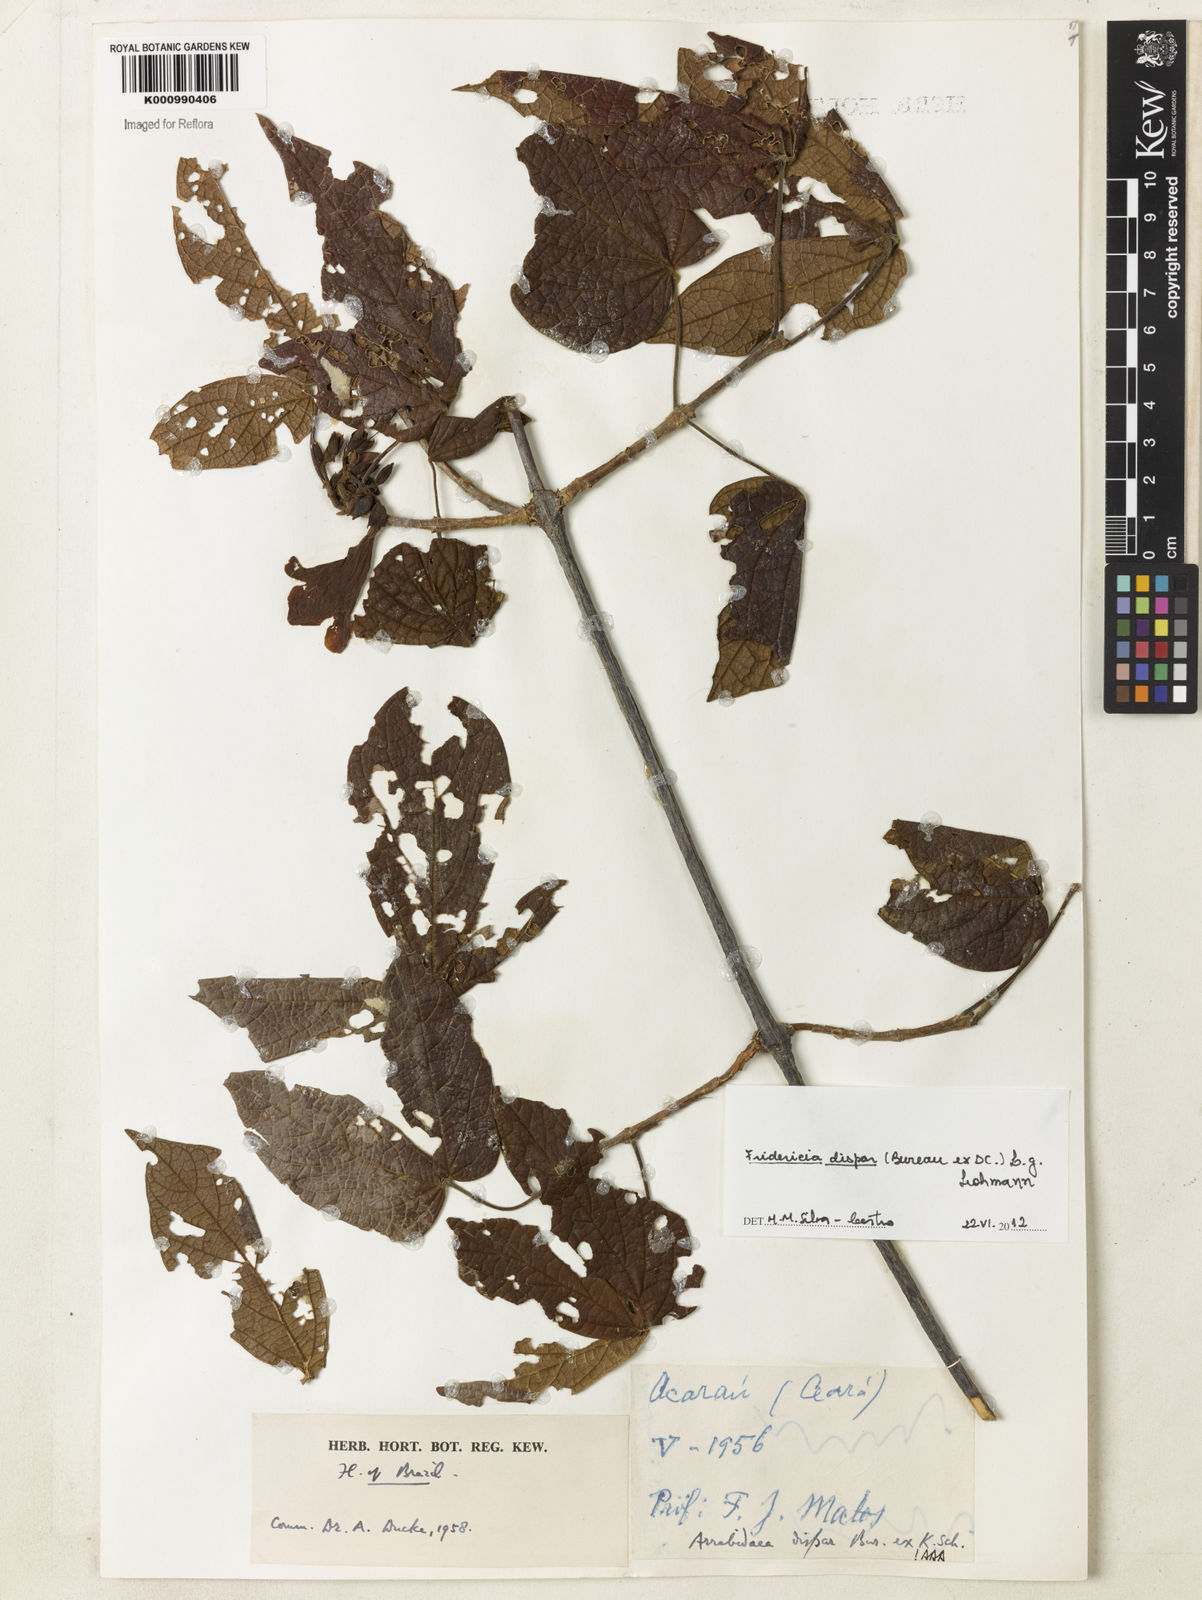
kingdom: Plantae
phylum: Tracheophyta
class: Magnoliopsida
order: Lamiales
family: Bignoniaceae
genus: Fridericia
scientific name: Fridericia dispar
